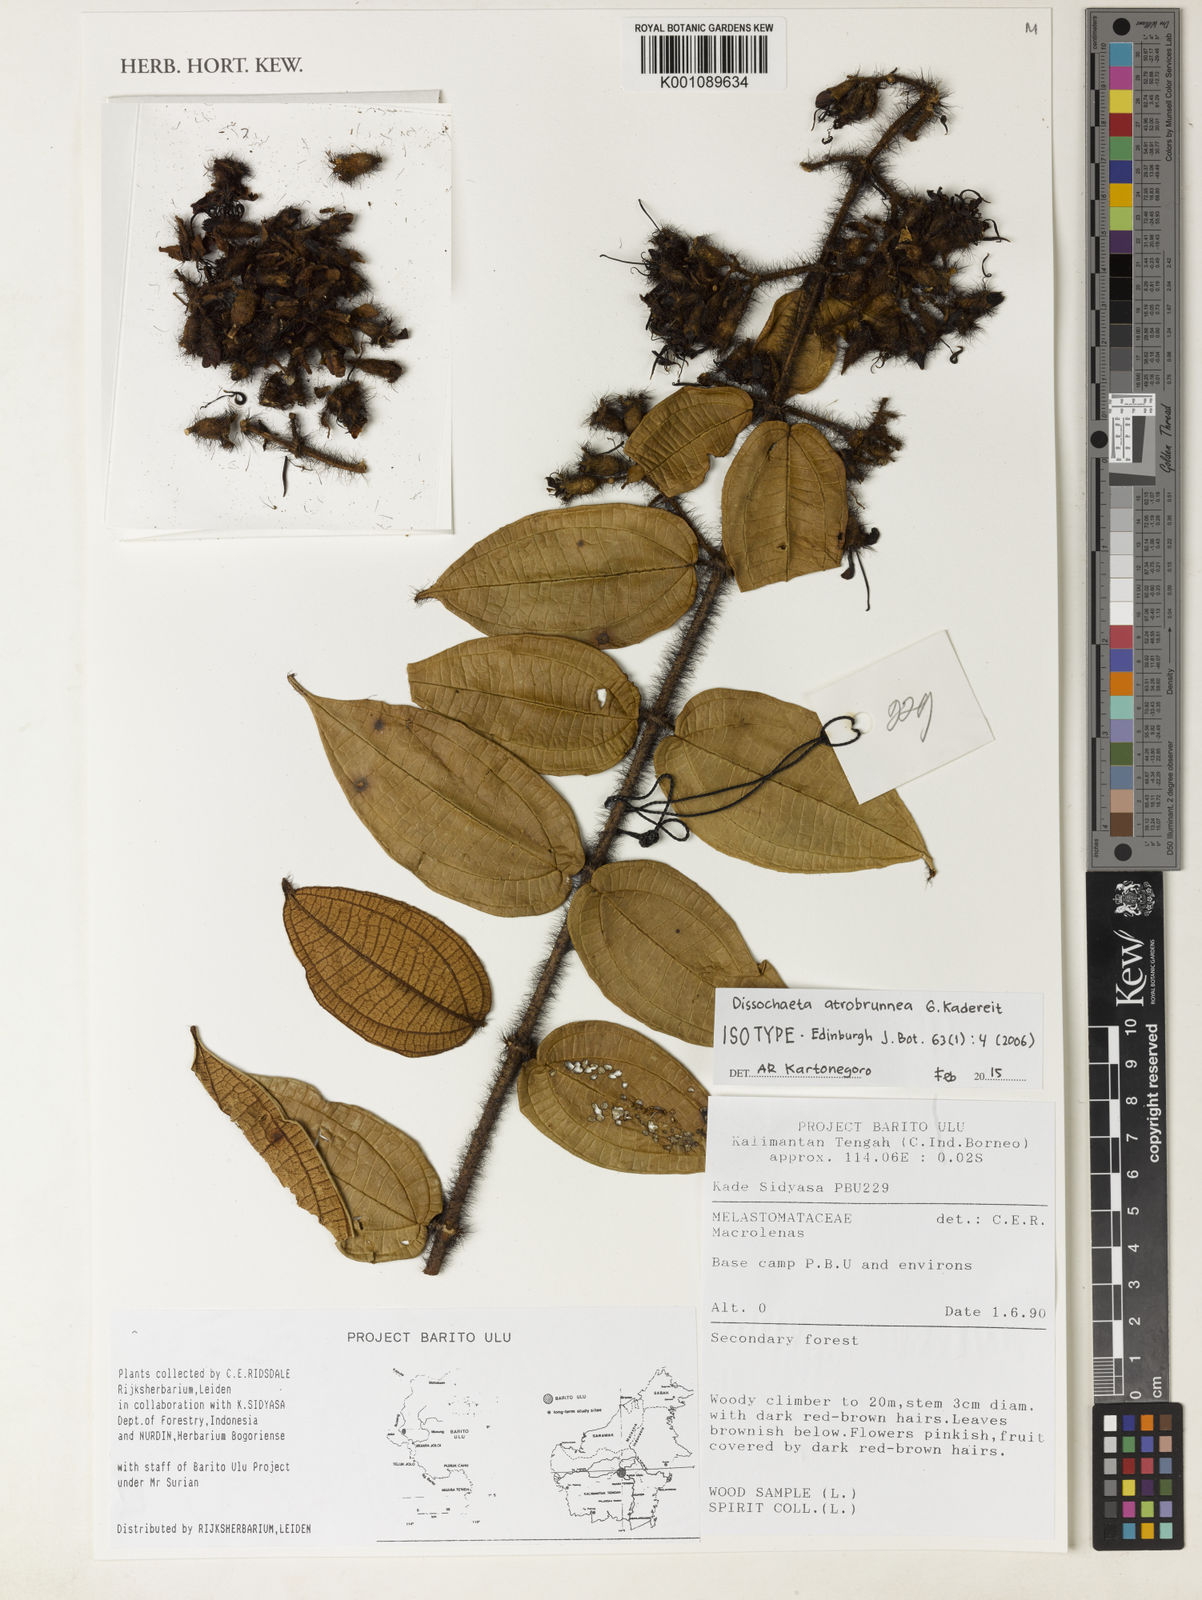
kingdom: Plantae
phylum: Tracheophyta
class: Magnoliopsida
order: Myrtales
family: Melastomataceae
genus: Macrolenes
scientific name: Macrolenes atrobrunnea
